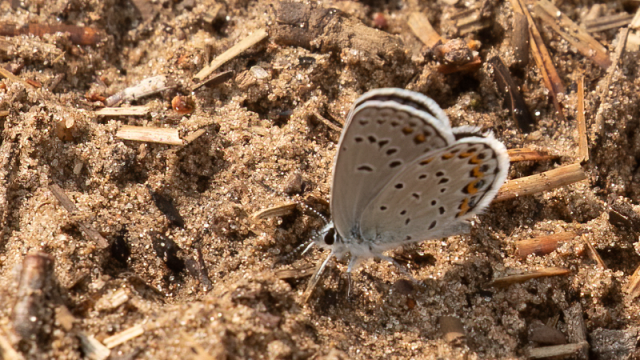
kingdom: Animalia
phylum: Arthropoda
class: Insecta
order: Lepidoptera
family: Lycaenidae
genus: Plebejus
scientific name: Plebejus samuelis
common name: Karner Blue
